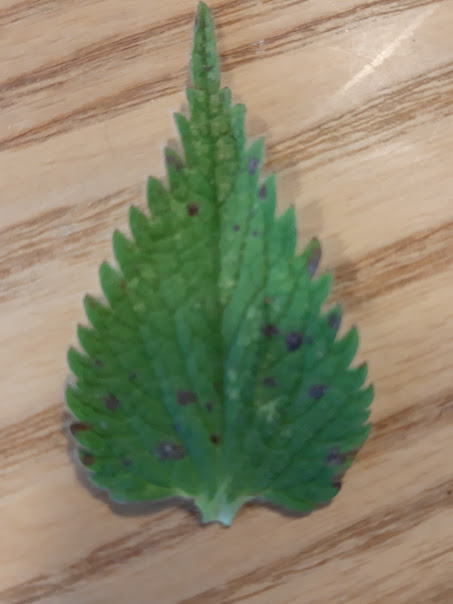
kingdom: Fungi
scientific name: Fungi
